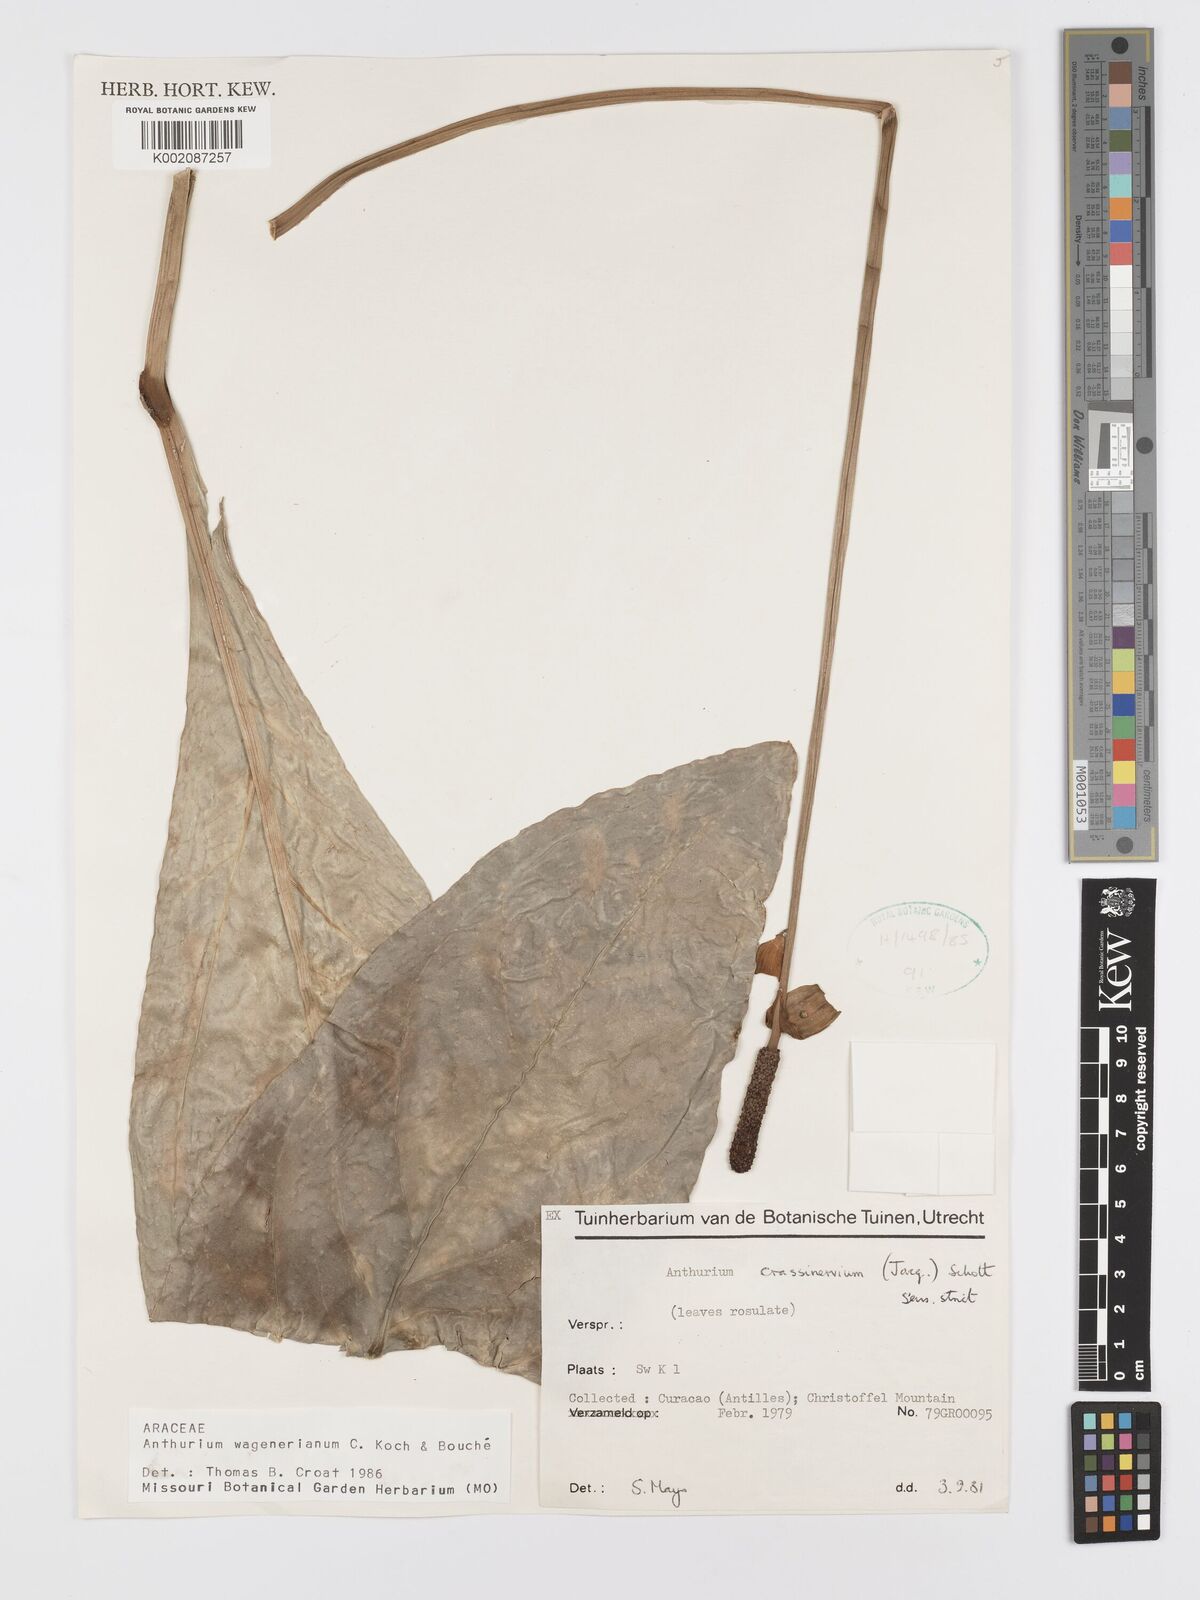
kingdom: Plantae
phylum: Tracheophyta
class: Liliopsida
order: Alismatales
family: Araceae
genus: Anthurium
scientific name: Anthurium wagenerianum
